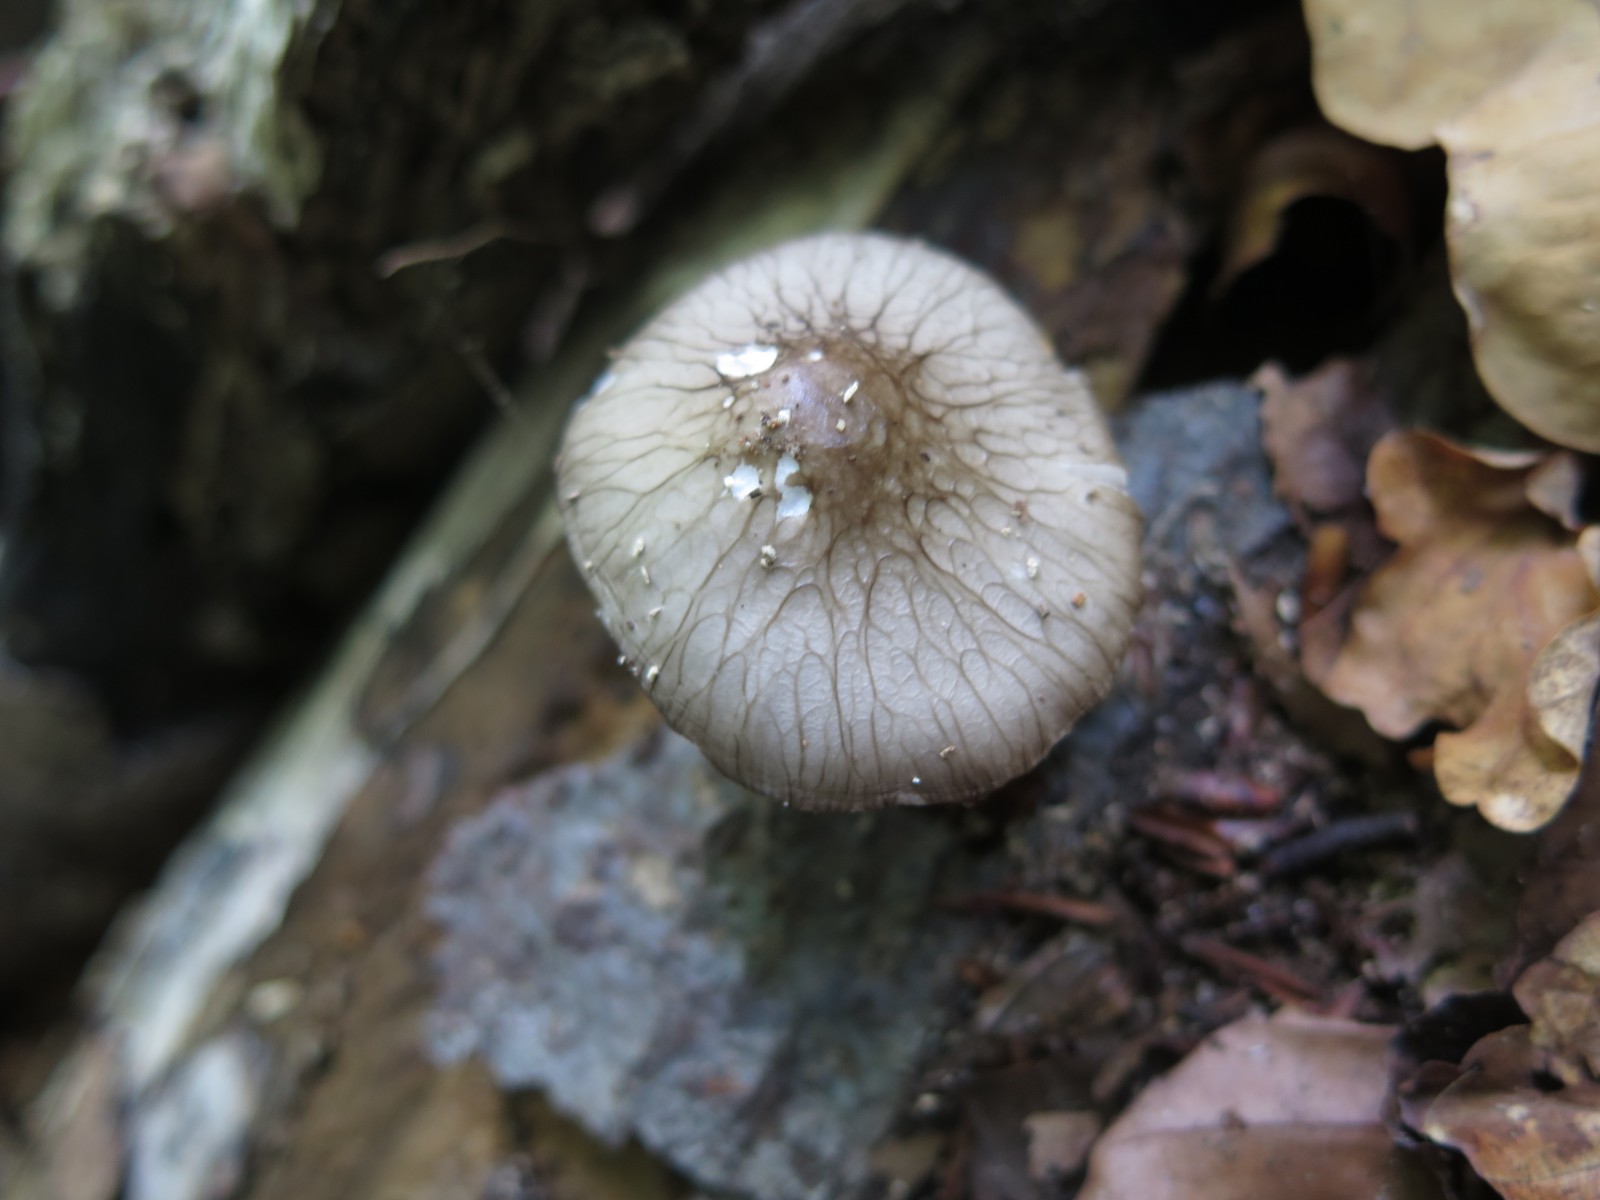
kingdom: Fungi
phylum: Basidiomycota
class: Agaricomycetes
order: Agaricales
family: Bolbitiaceae
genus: Bolbitius
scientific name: Bolbitius reticulatus
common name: netåret gulhat
